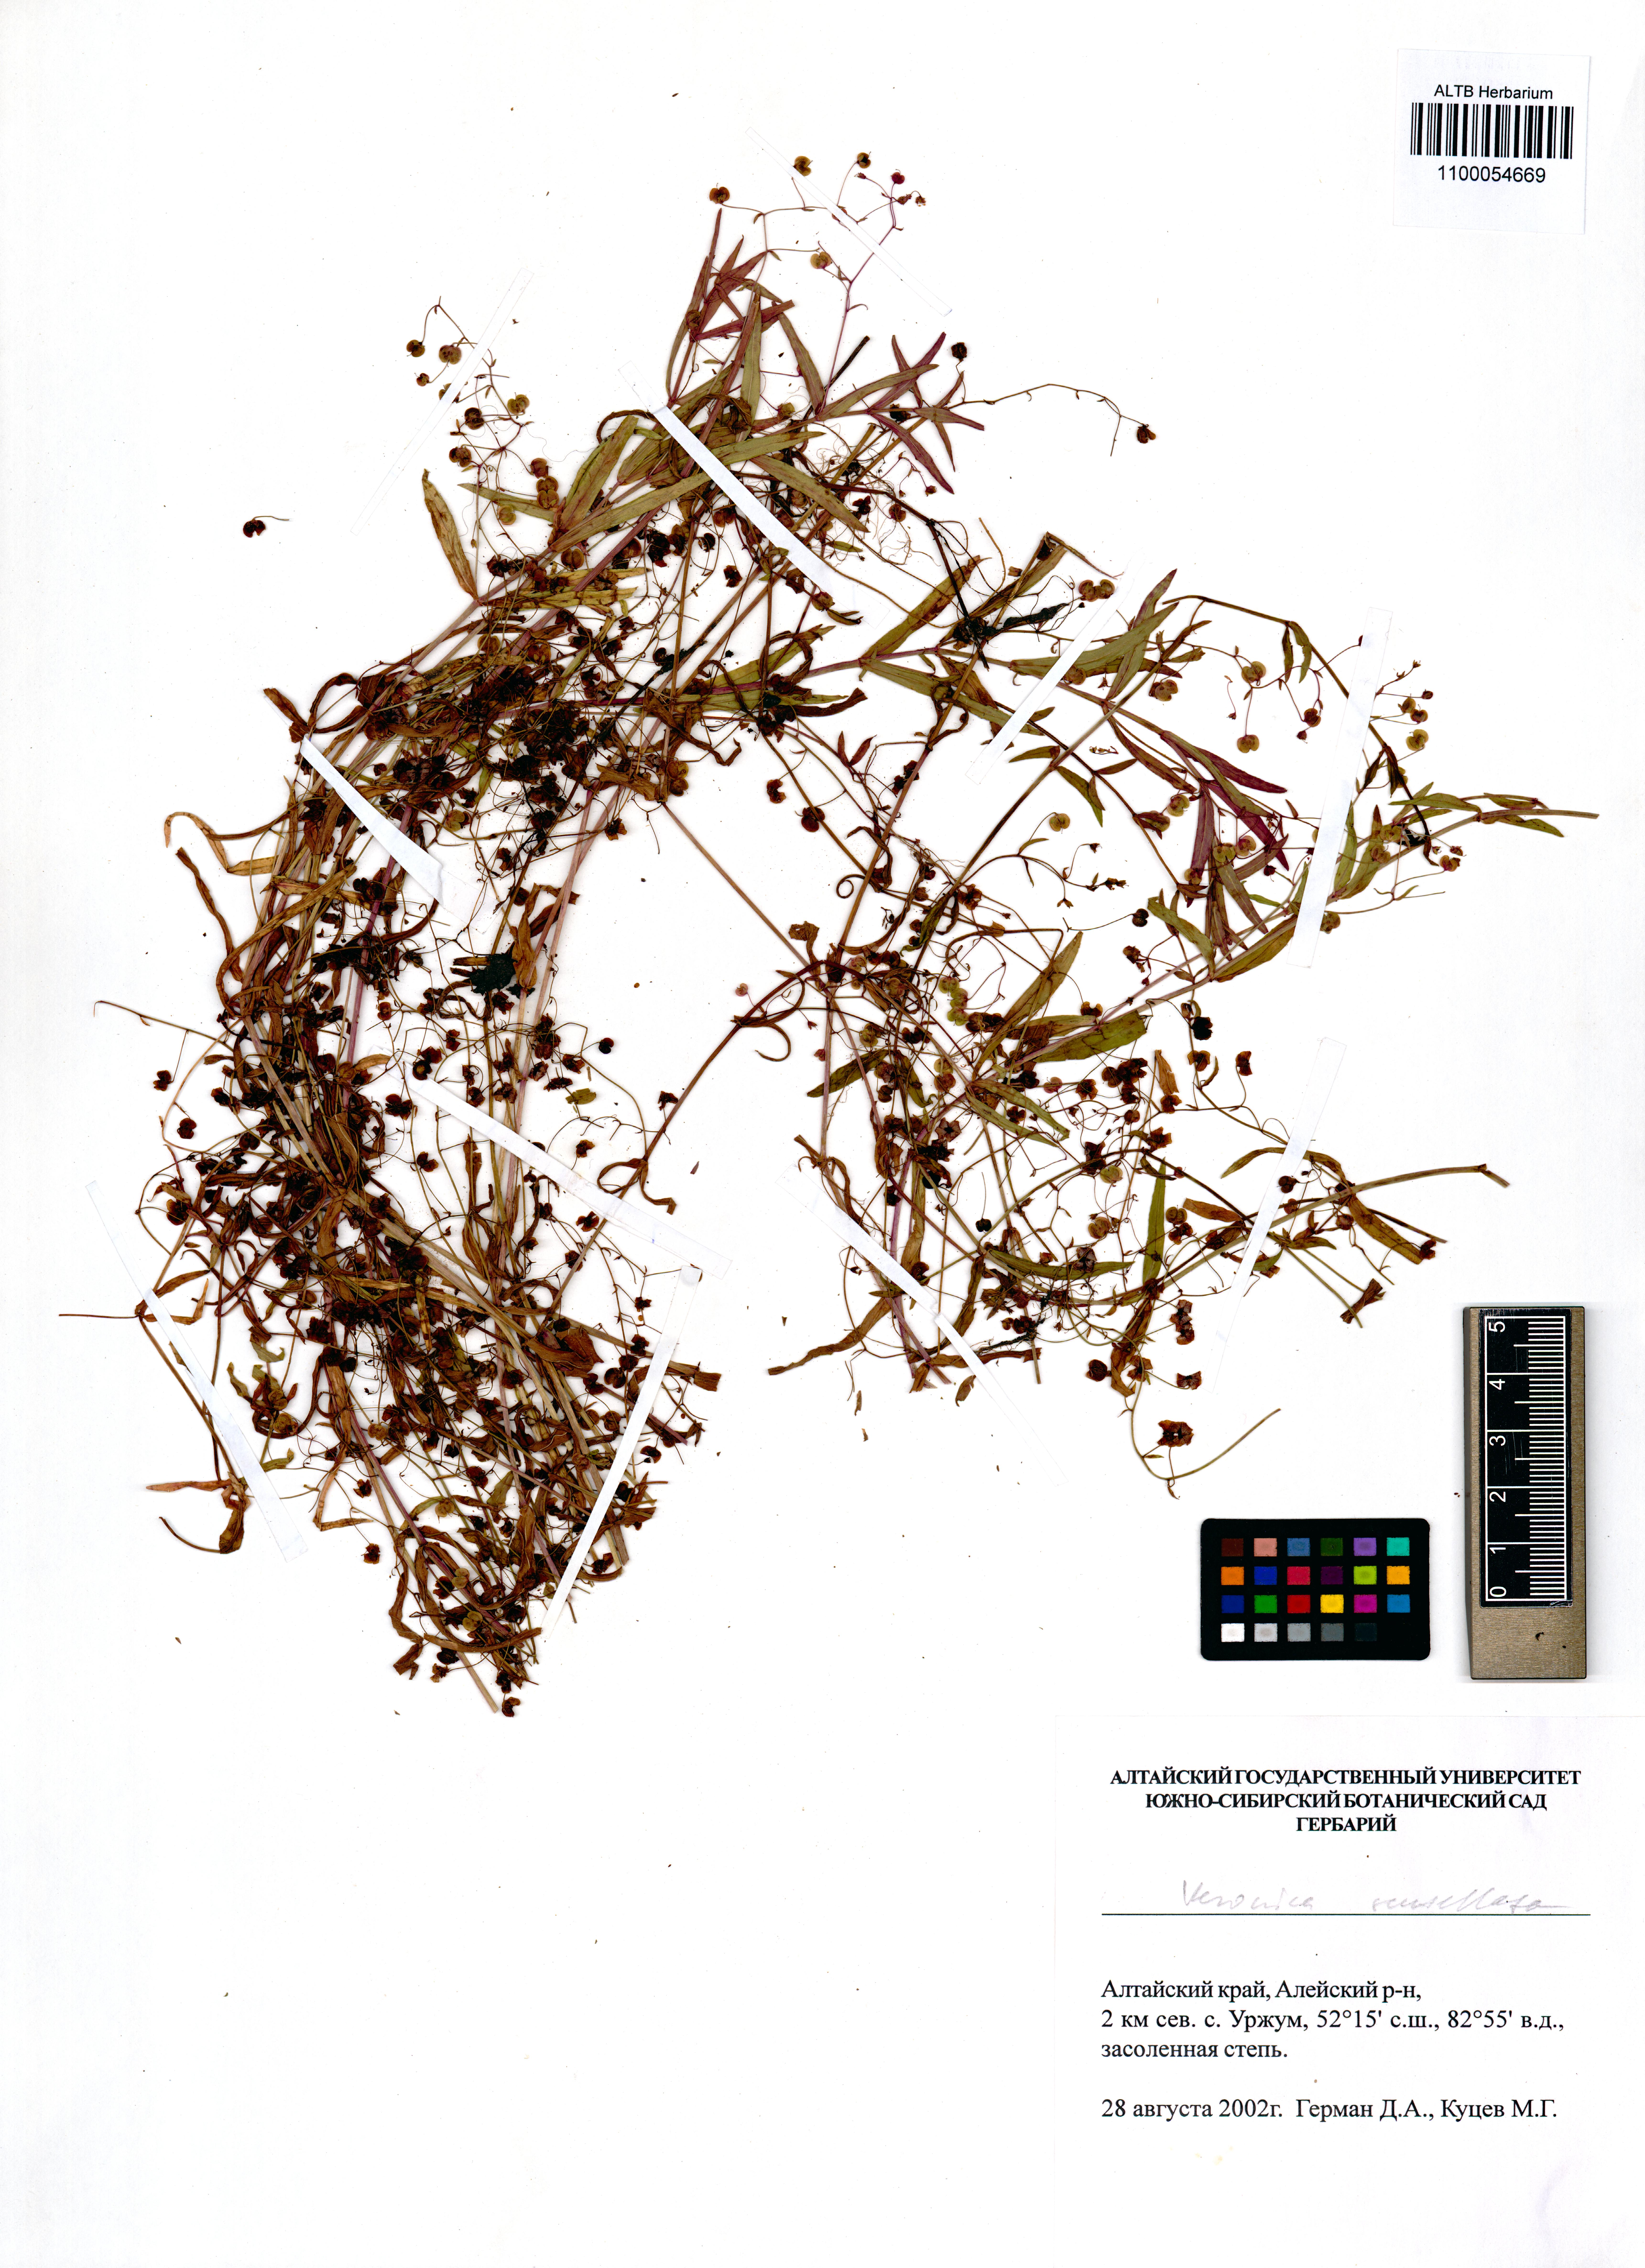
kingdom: Plantae
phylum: Tracheophyta
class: Magnoliopsida
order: Lamiales
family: Plantaginaceae
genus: Veronica
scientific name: Veronica scutellata
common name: Marsh speedwell
